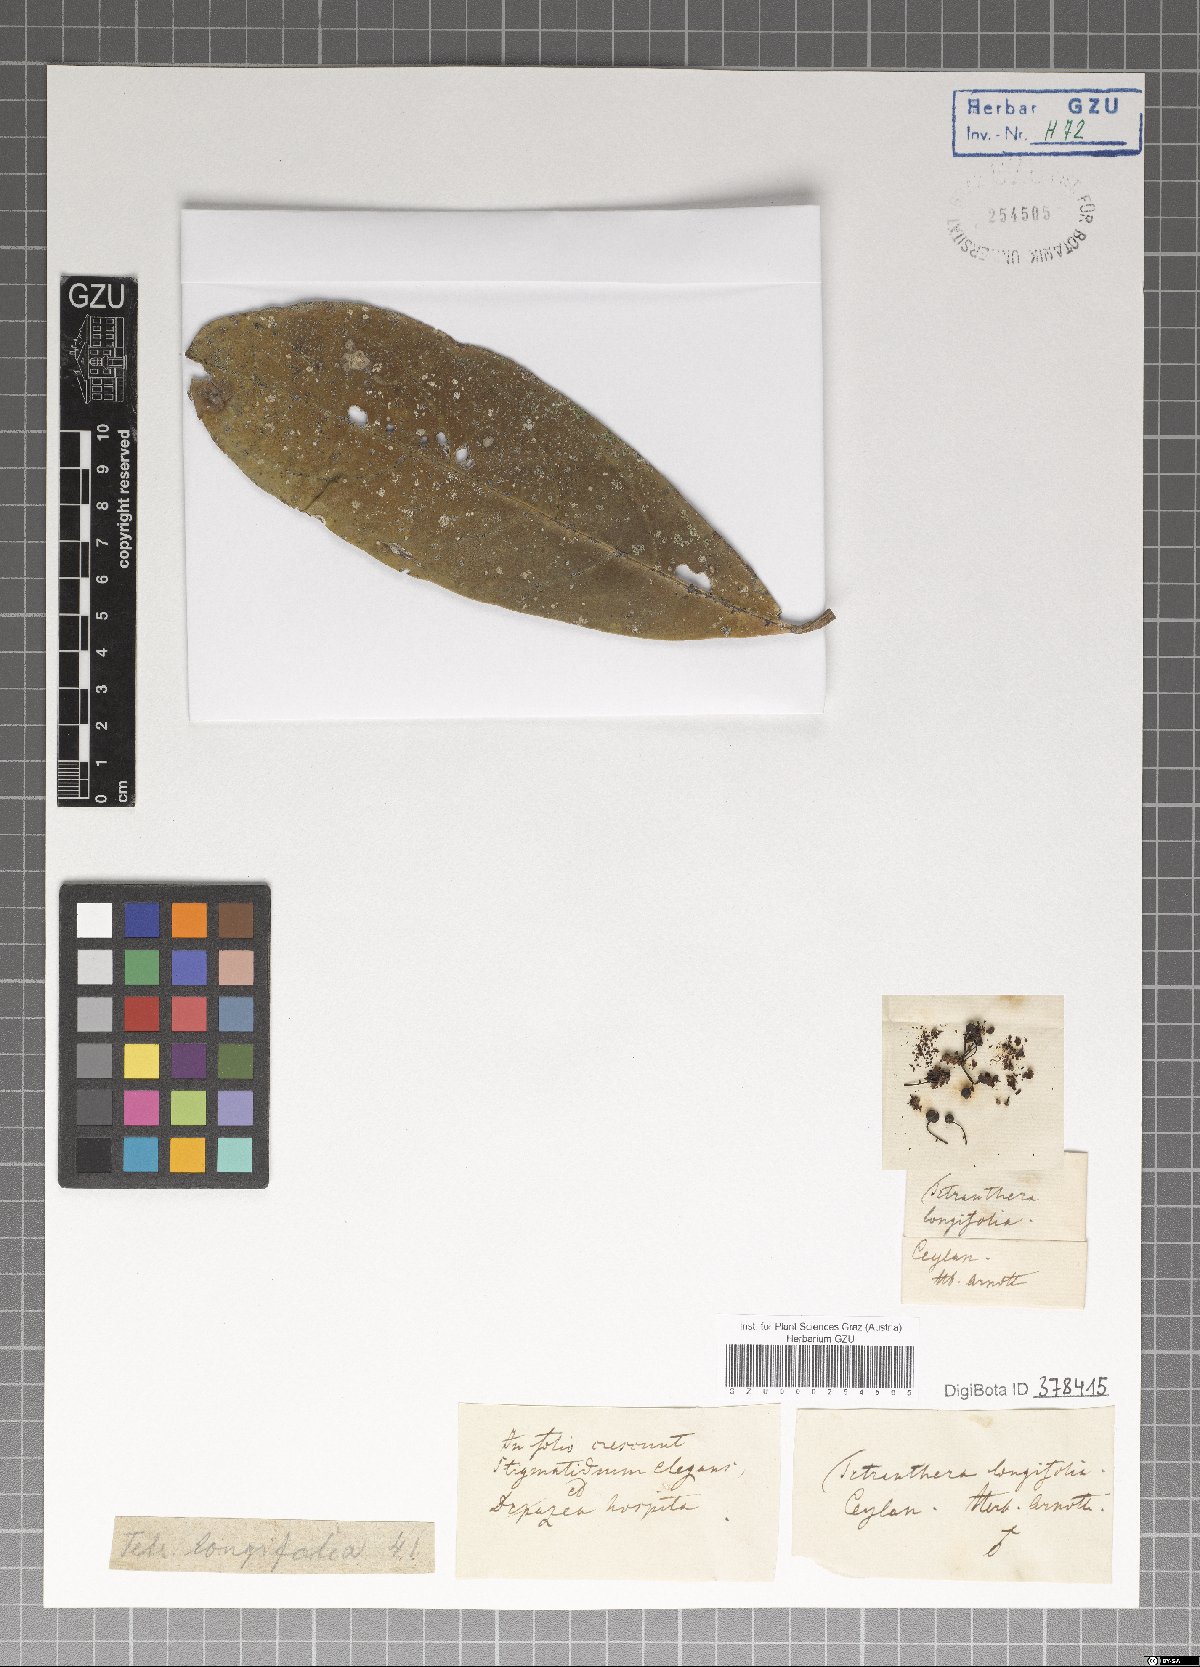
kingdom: Plantae
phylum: Tracheophyta
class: Magnoliopsida
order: Laurales
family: Lauraceae
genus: Litsea
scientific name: Litsea ligustrina
